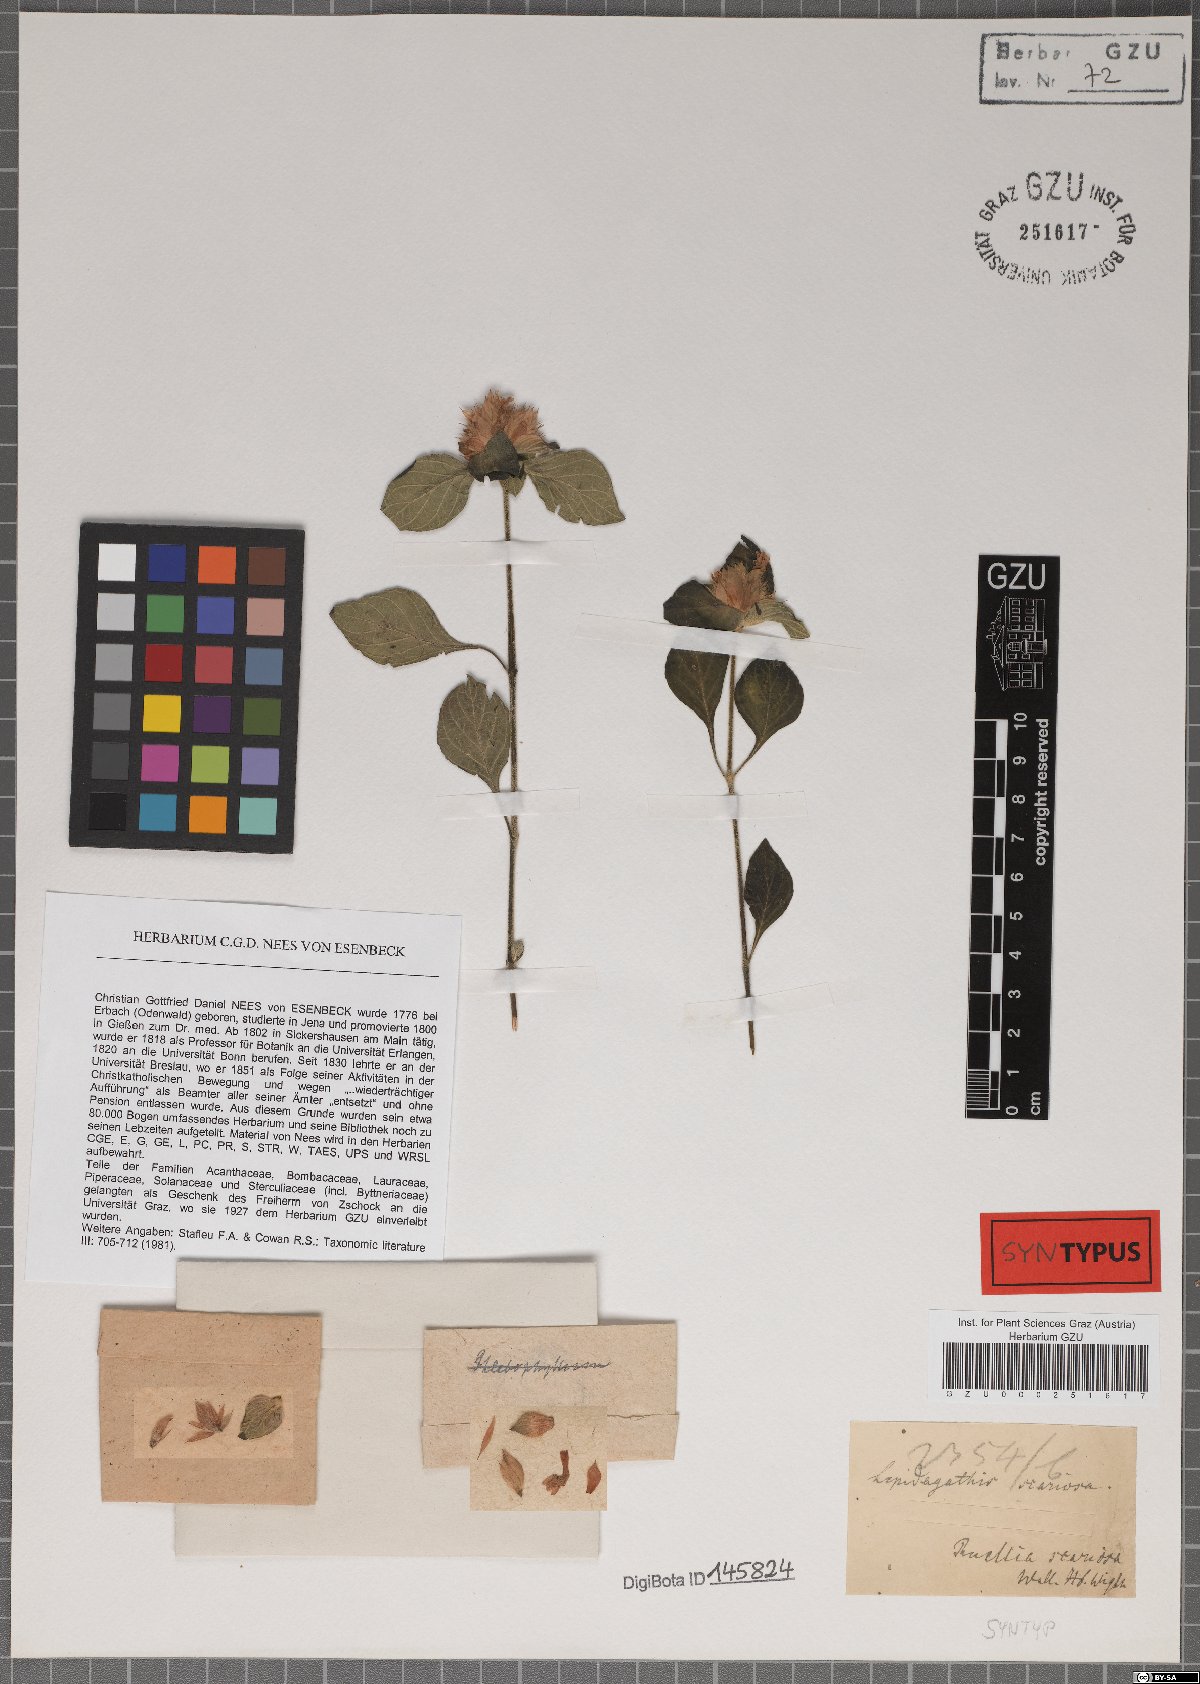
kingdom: Plantae
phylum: Tracheophyta
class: Magnoliopsida
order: Lamiales
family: Acanthaceae
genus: Lepidagathis
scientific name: Lepidagathis scariosa
